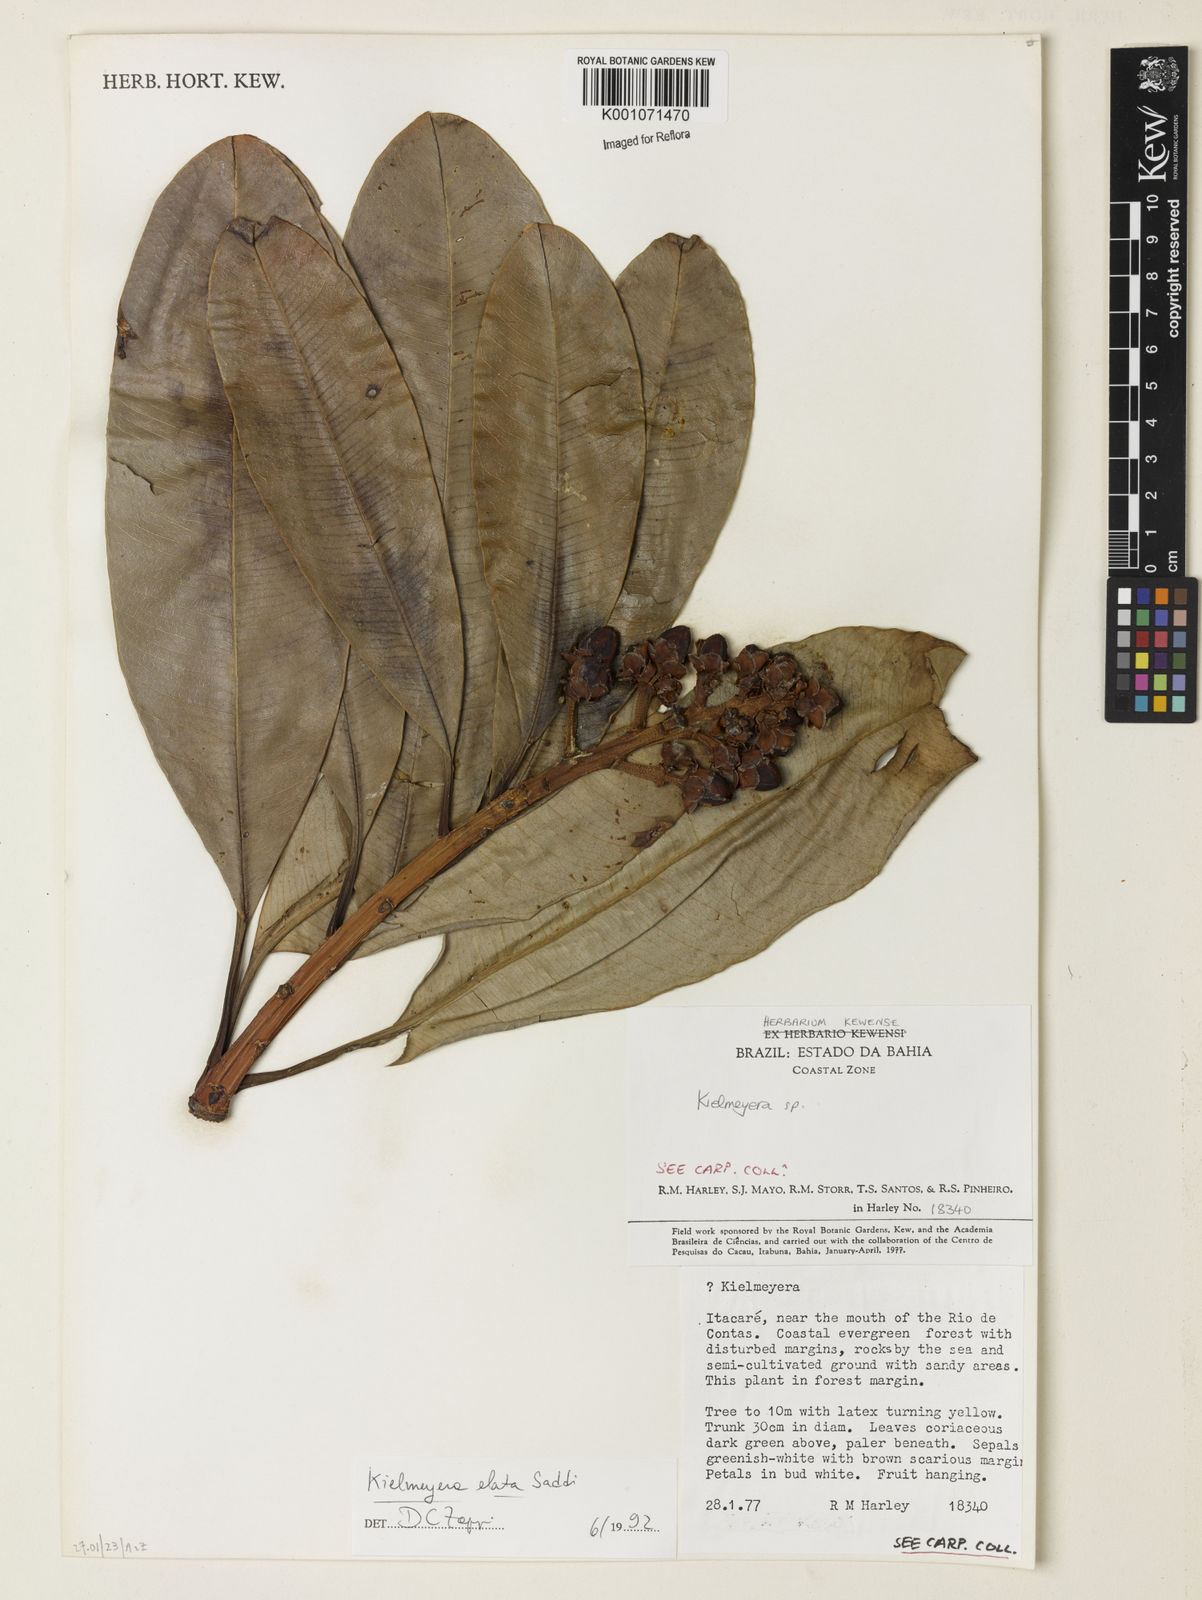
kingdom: Plantae
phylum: Tracheophyta
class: Magnoliopsida
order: Malpighiales
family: Calophyllaceae
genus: Kielmeyera
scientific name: Kielmeyera itacarensis
